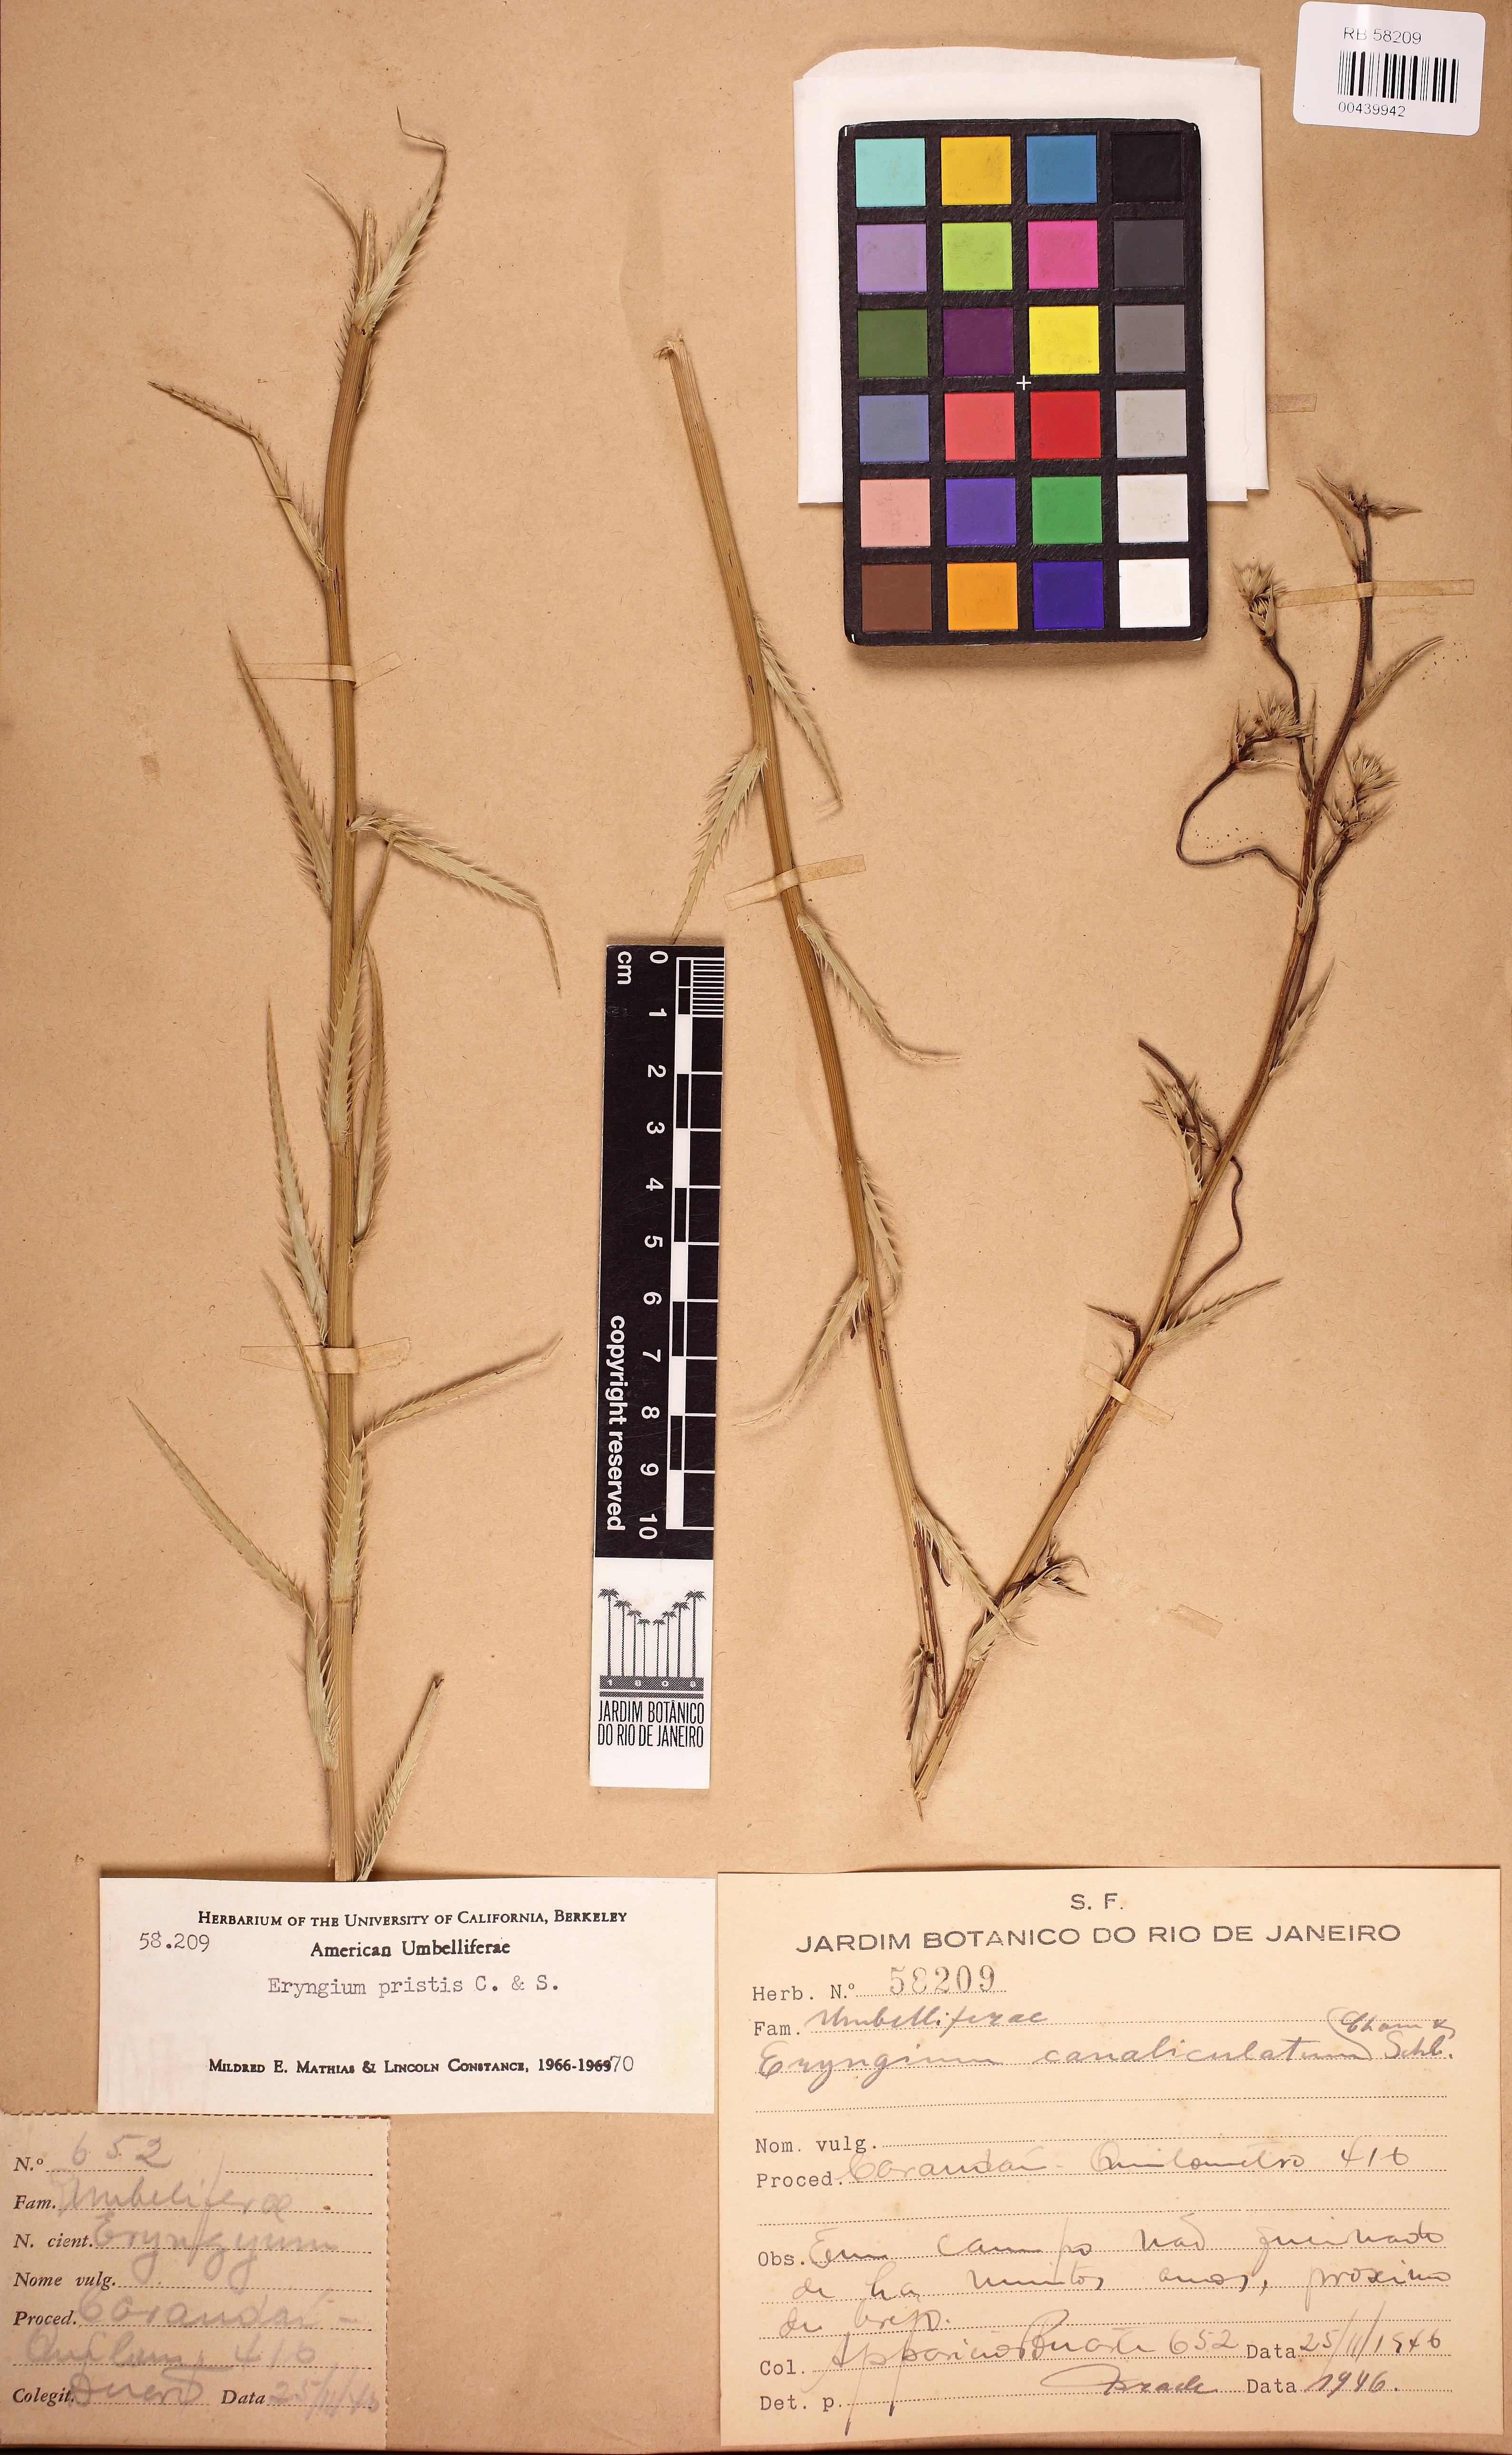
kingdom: Plantae
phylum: Tracheophyta
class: Magnoliopsida
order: Apiales
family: Apiaceae
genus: Eryngium
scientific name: Eryngium pristis
